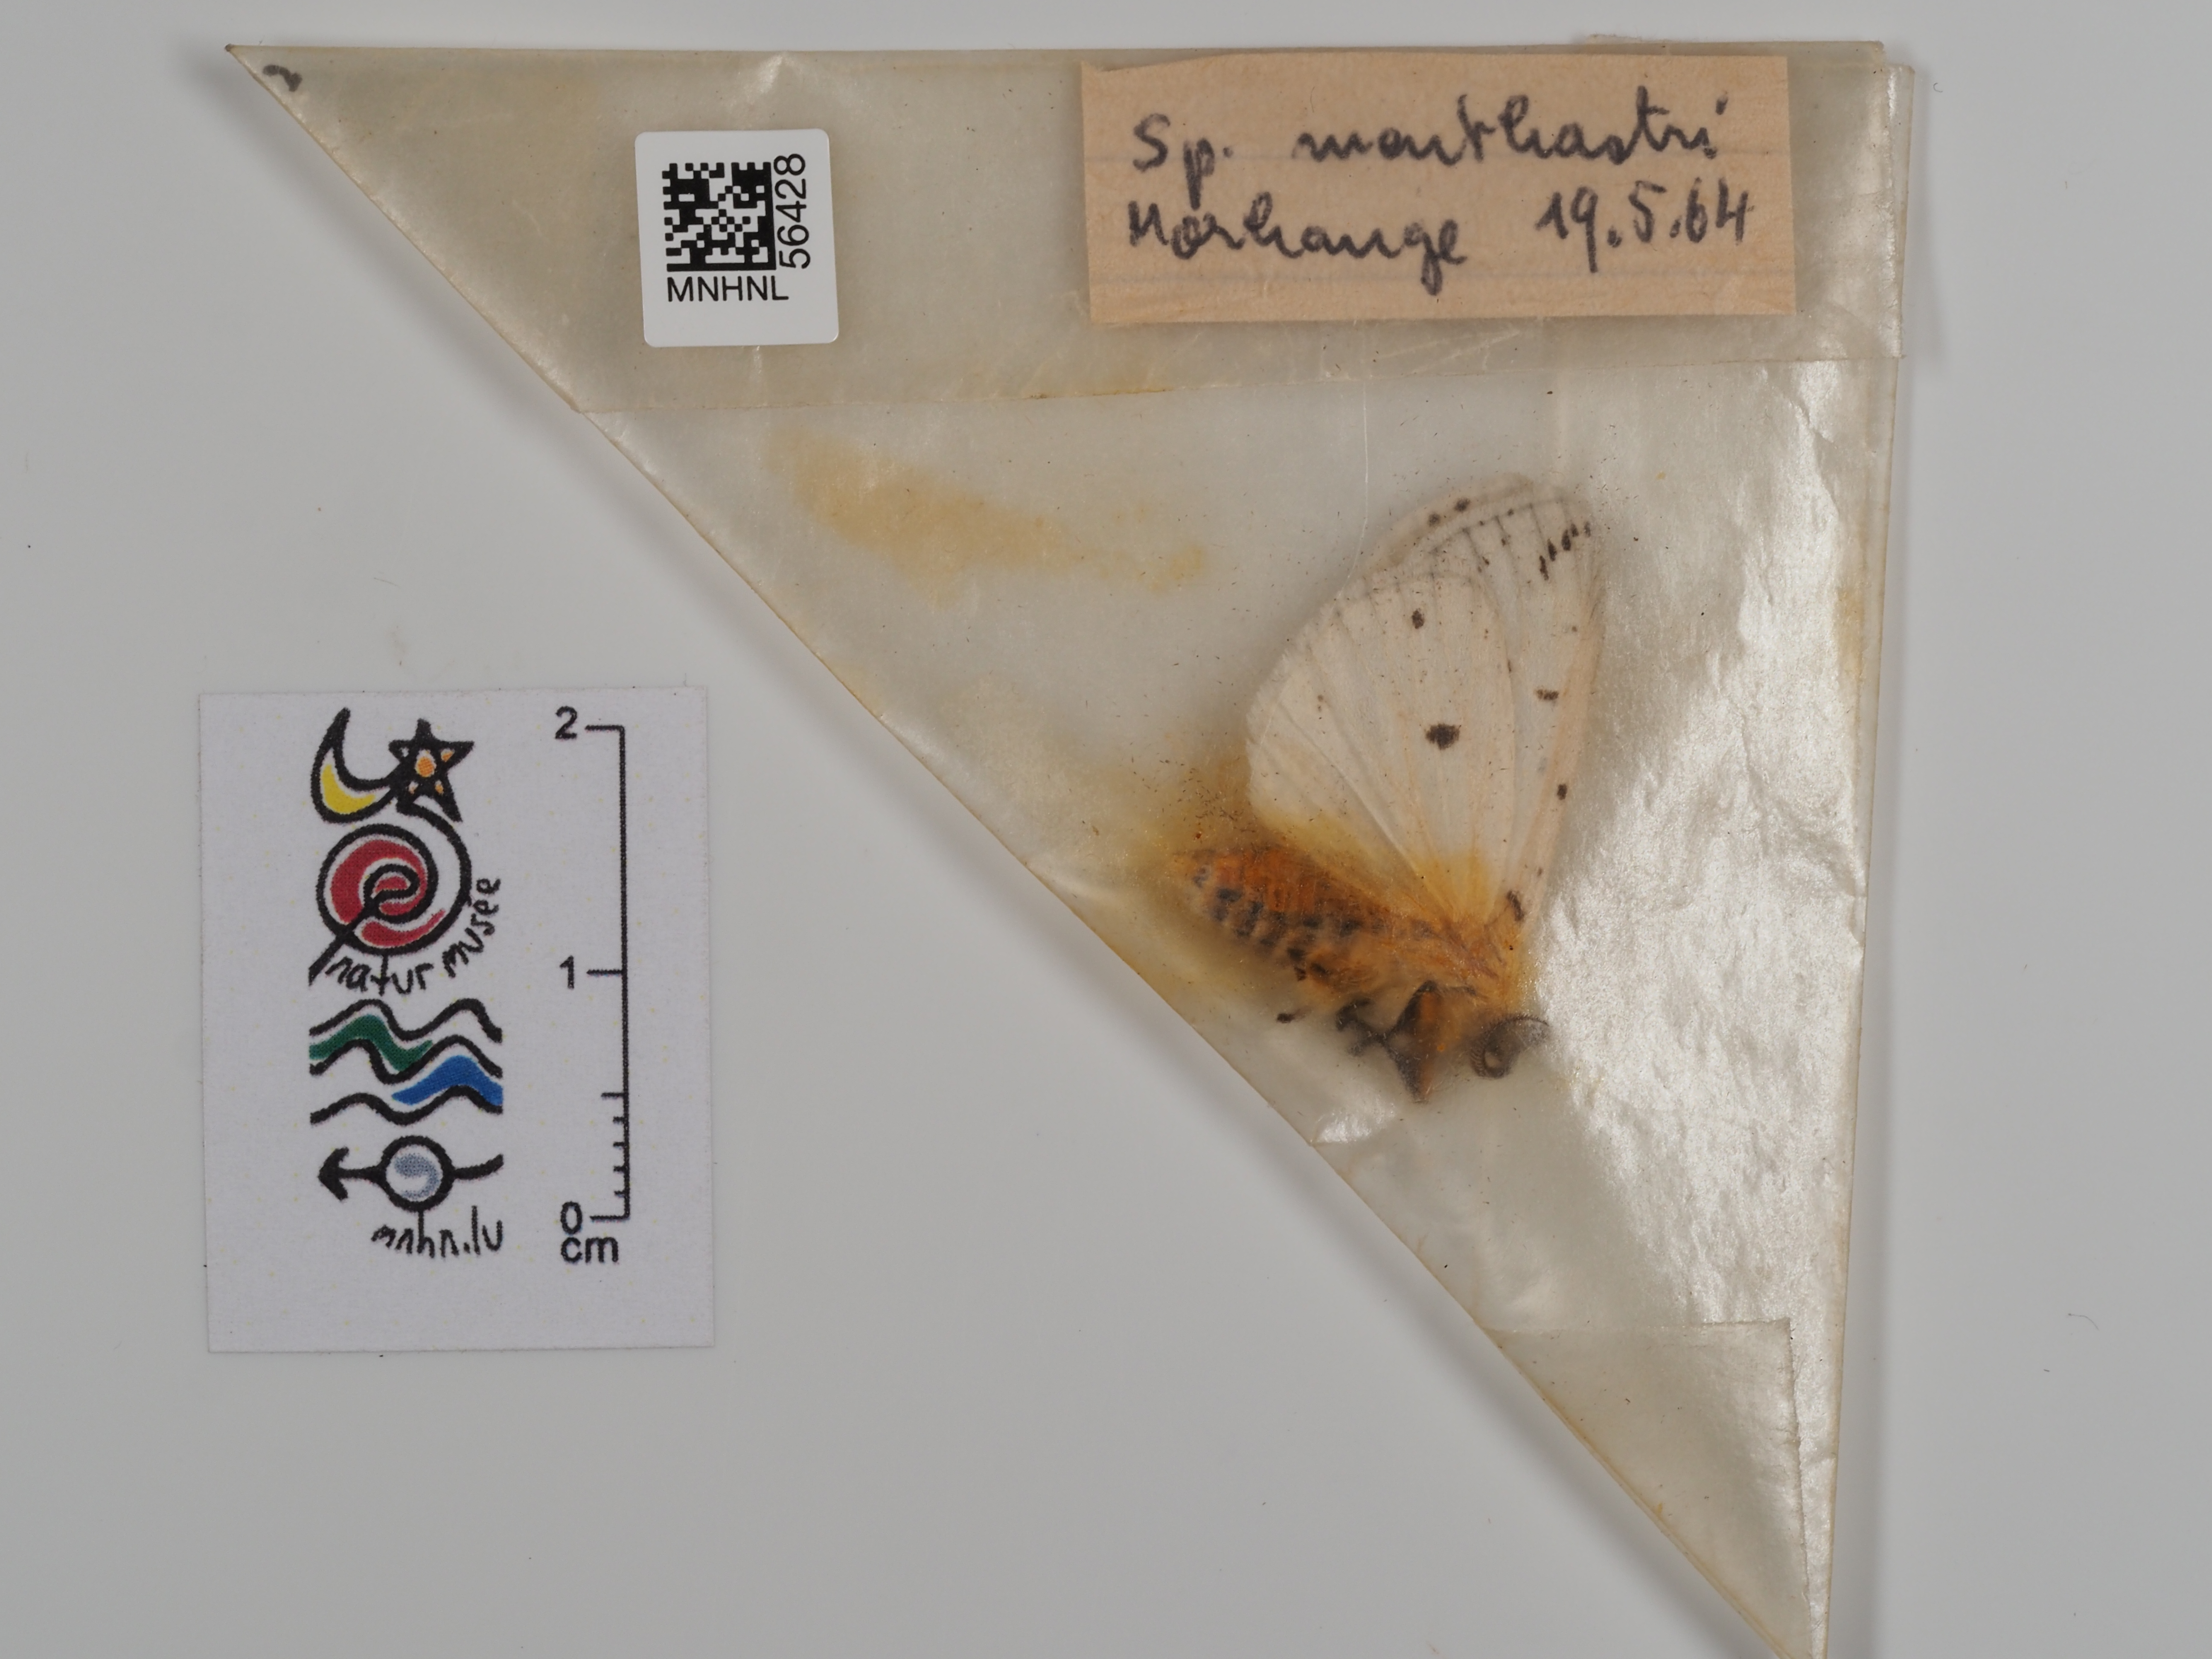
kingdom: Animalia
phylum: Arthropoda
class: Insecta
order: Lepidoptera
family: Erebidae
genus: Spilosoma
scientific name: Spilosoma lubricipeda
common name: White ermine
